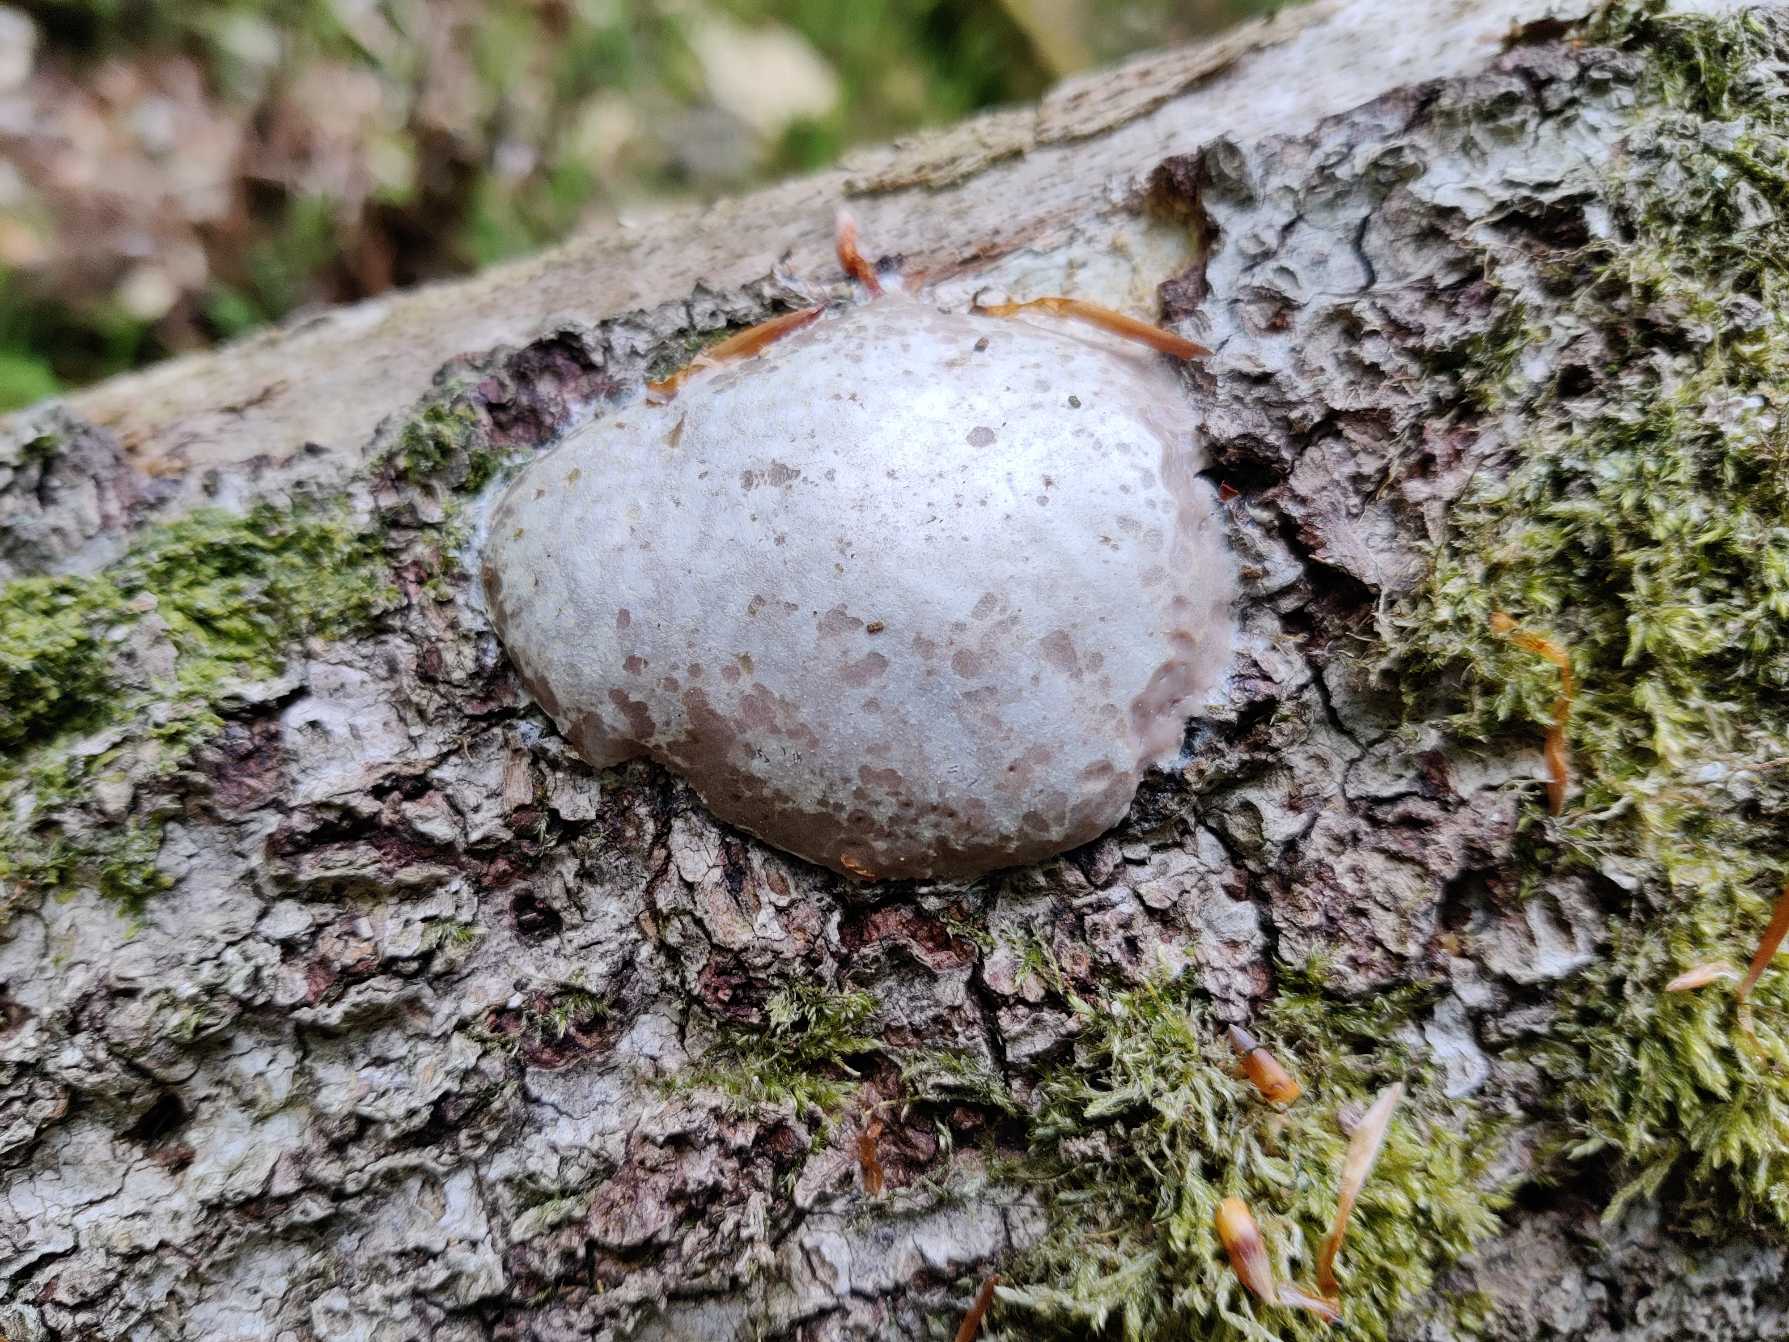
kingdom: Protozoa
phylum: Mycetozoa
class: Myxomycetes
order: Cribrariales
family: Tubiferaceae
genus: Reticularia
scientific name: Reticularia lycoperdon
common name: Skinnende støvpude
